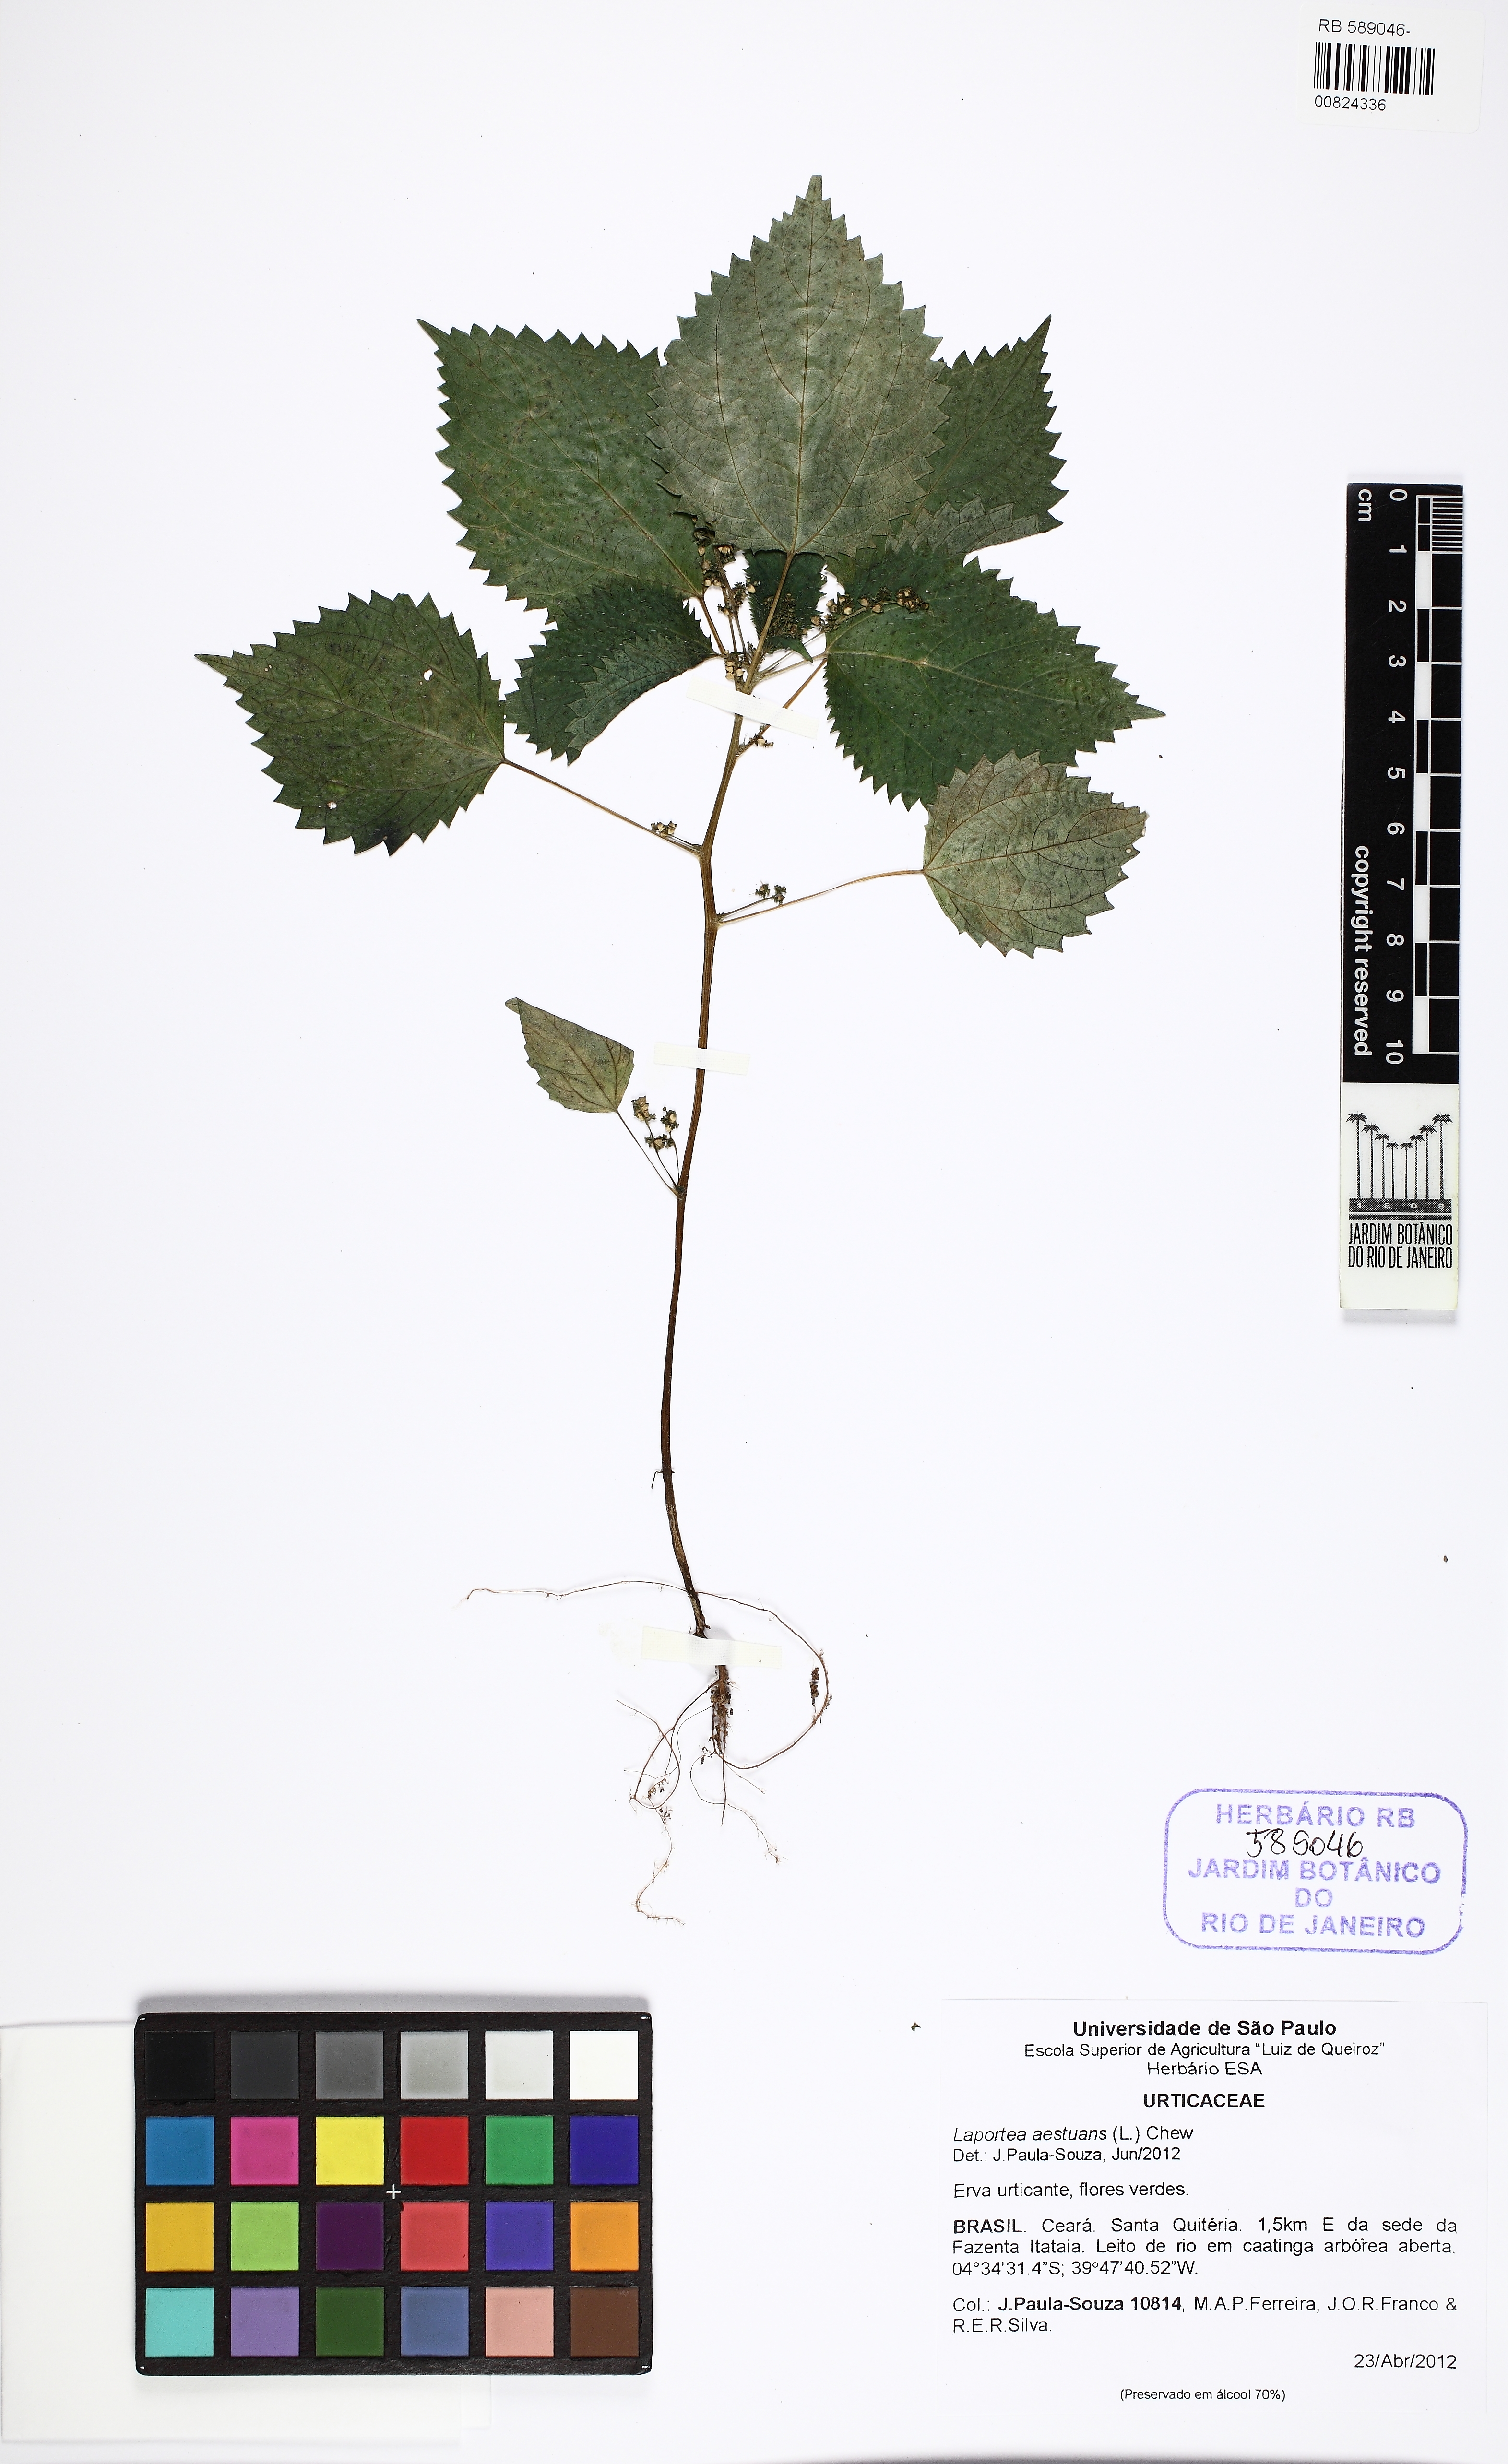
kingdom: Plantae
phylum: Tracheophyta
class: Magnoliopsida
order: Rosales
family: Urticaceae
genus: Laportea
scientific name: Laportea aestuans
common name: West indian woodnettle
